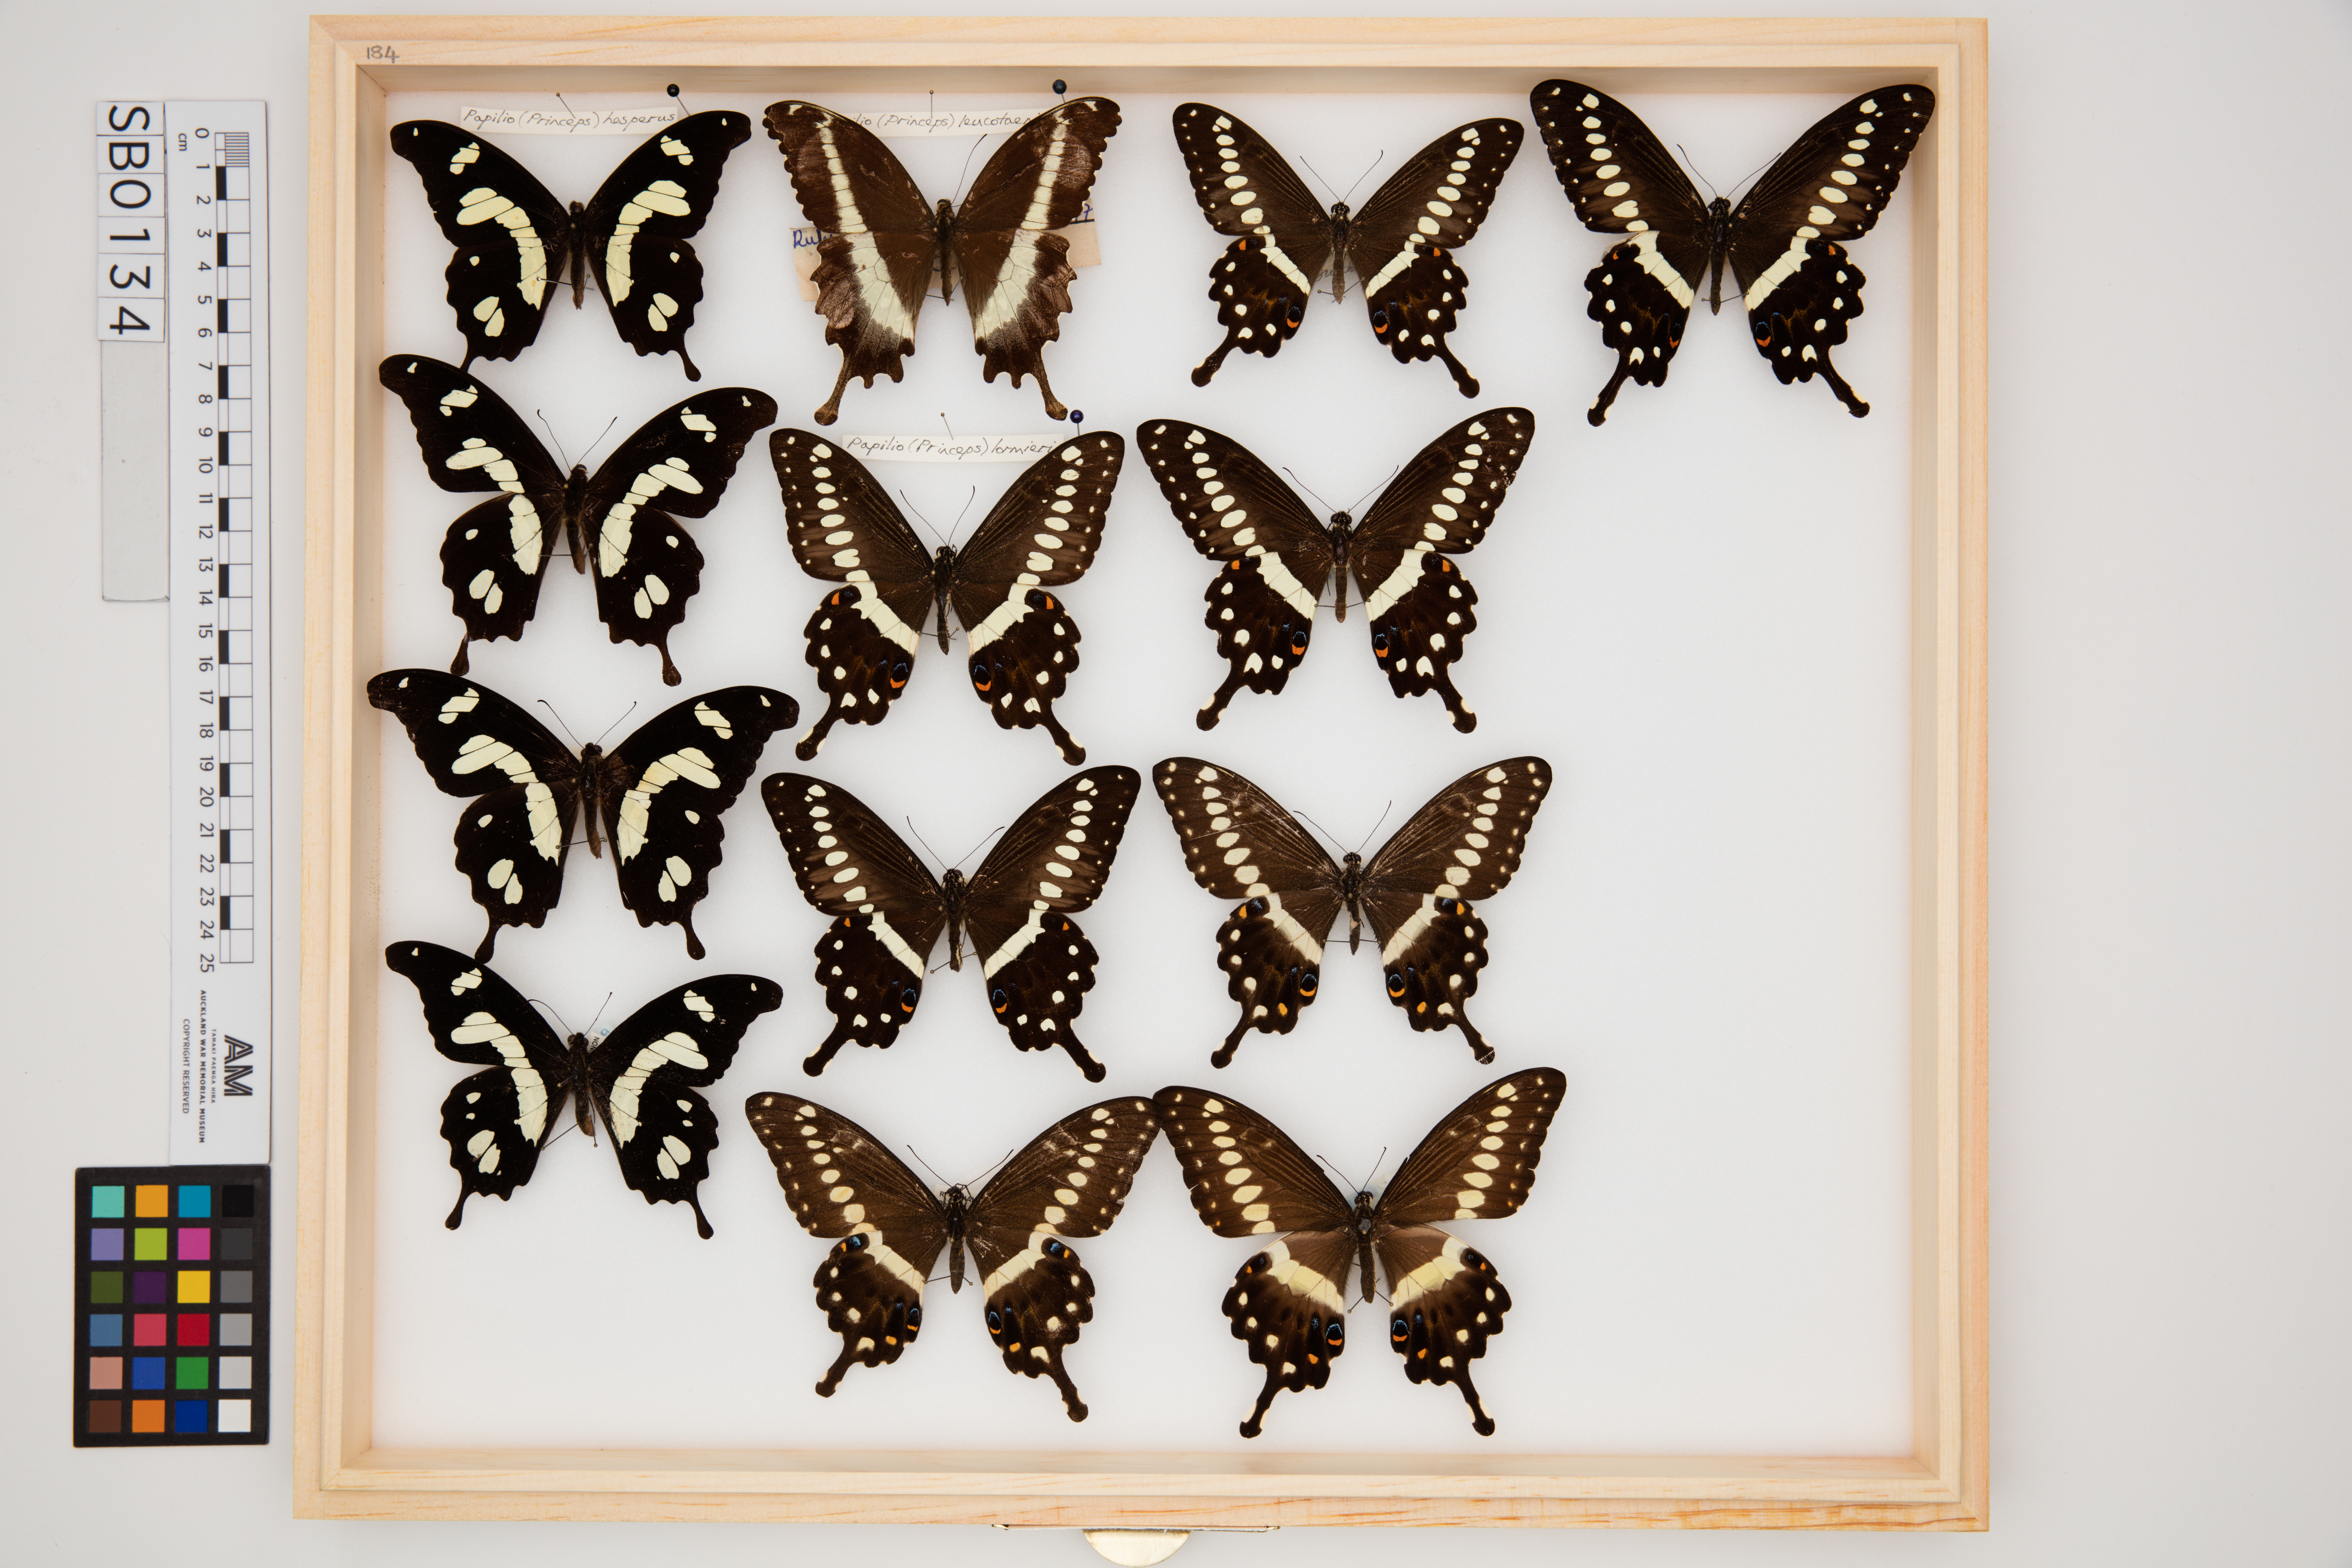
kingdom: Animalia
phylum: Arthropoda
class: Insecta
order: Lepidoptera
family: Papilionidae
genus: Papilio
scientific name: Papilio lormieri
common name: Central emperor swallowtail
